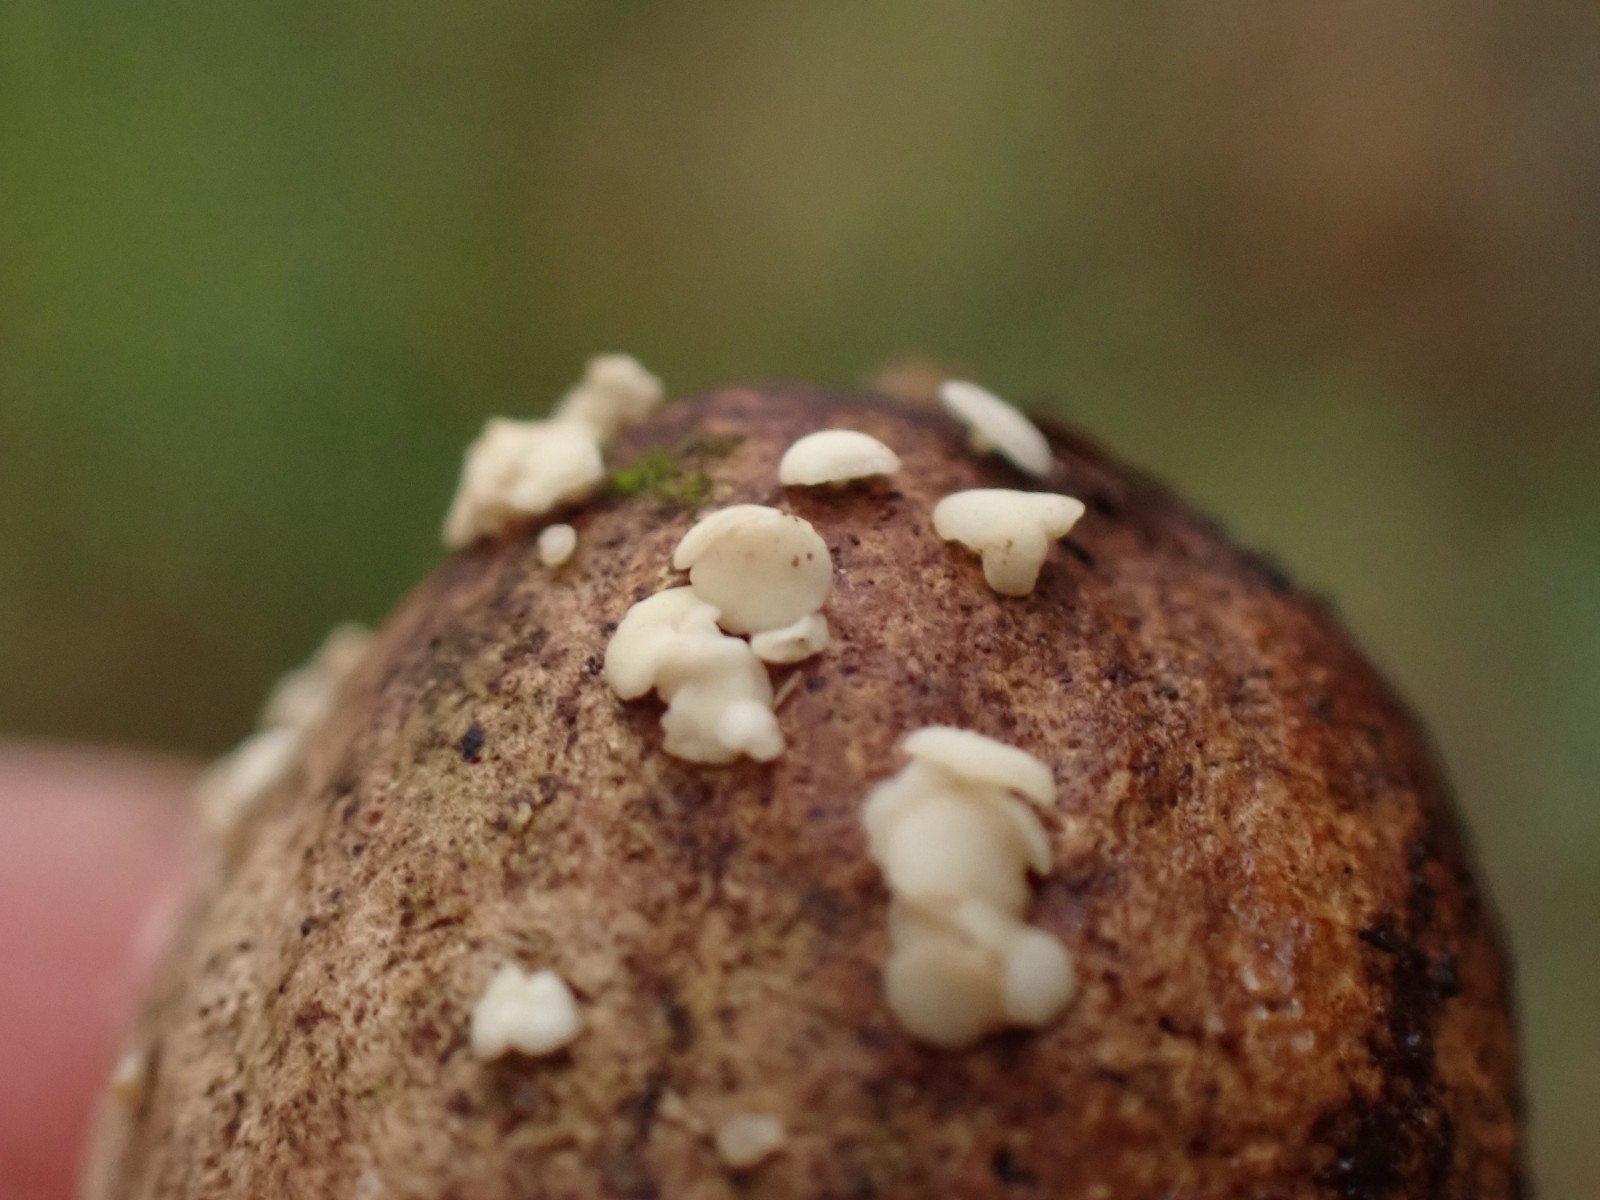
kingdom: Fungi
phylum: Ascomycota
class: Leotiomycetes
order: Helotiales
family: Helotiaceae
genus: Hymenoscyphus
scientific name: Hymenoscyphus
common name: stilkskive
